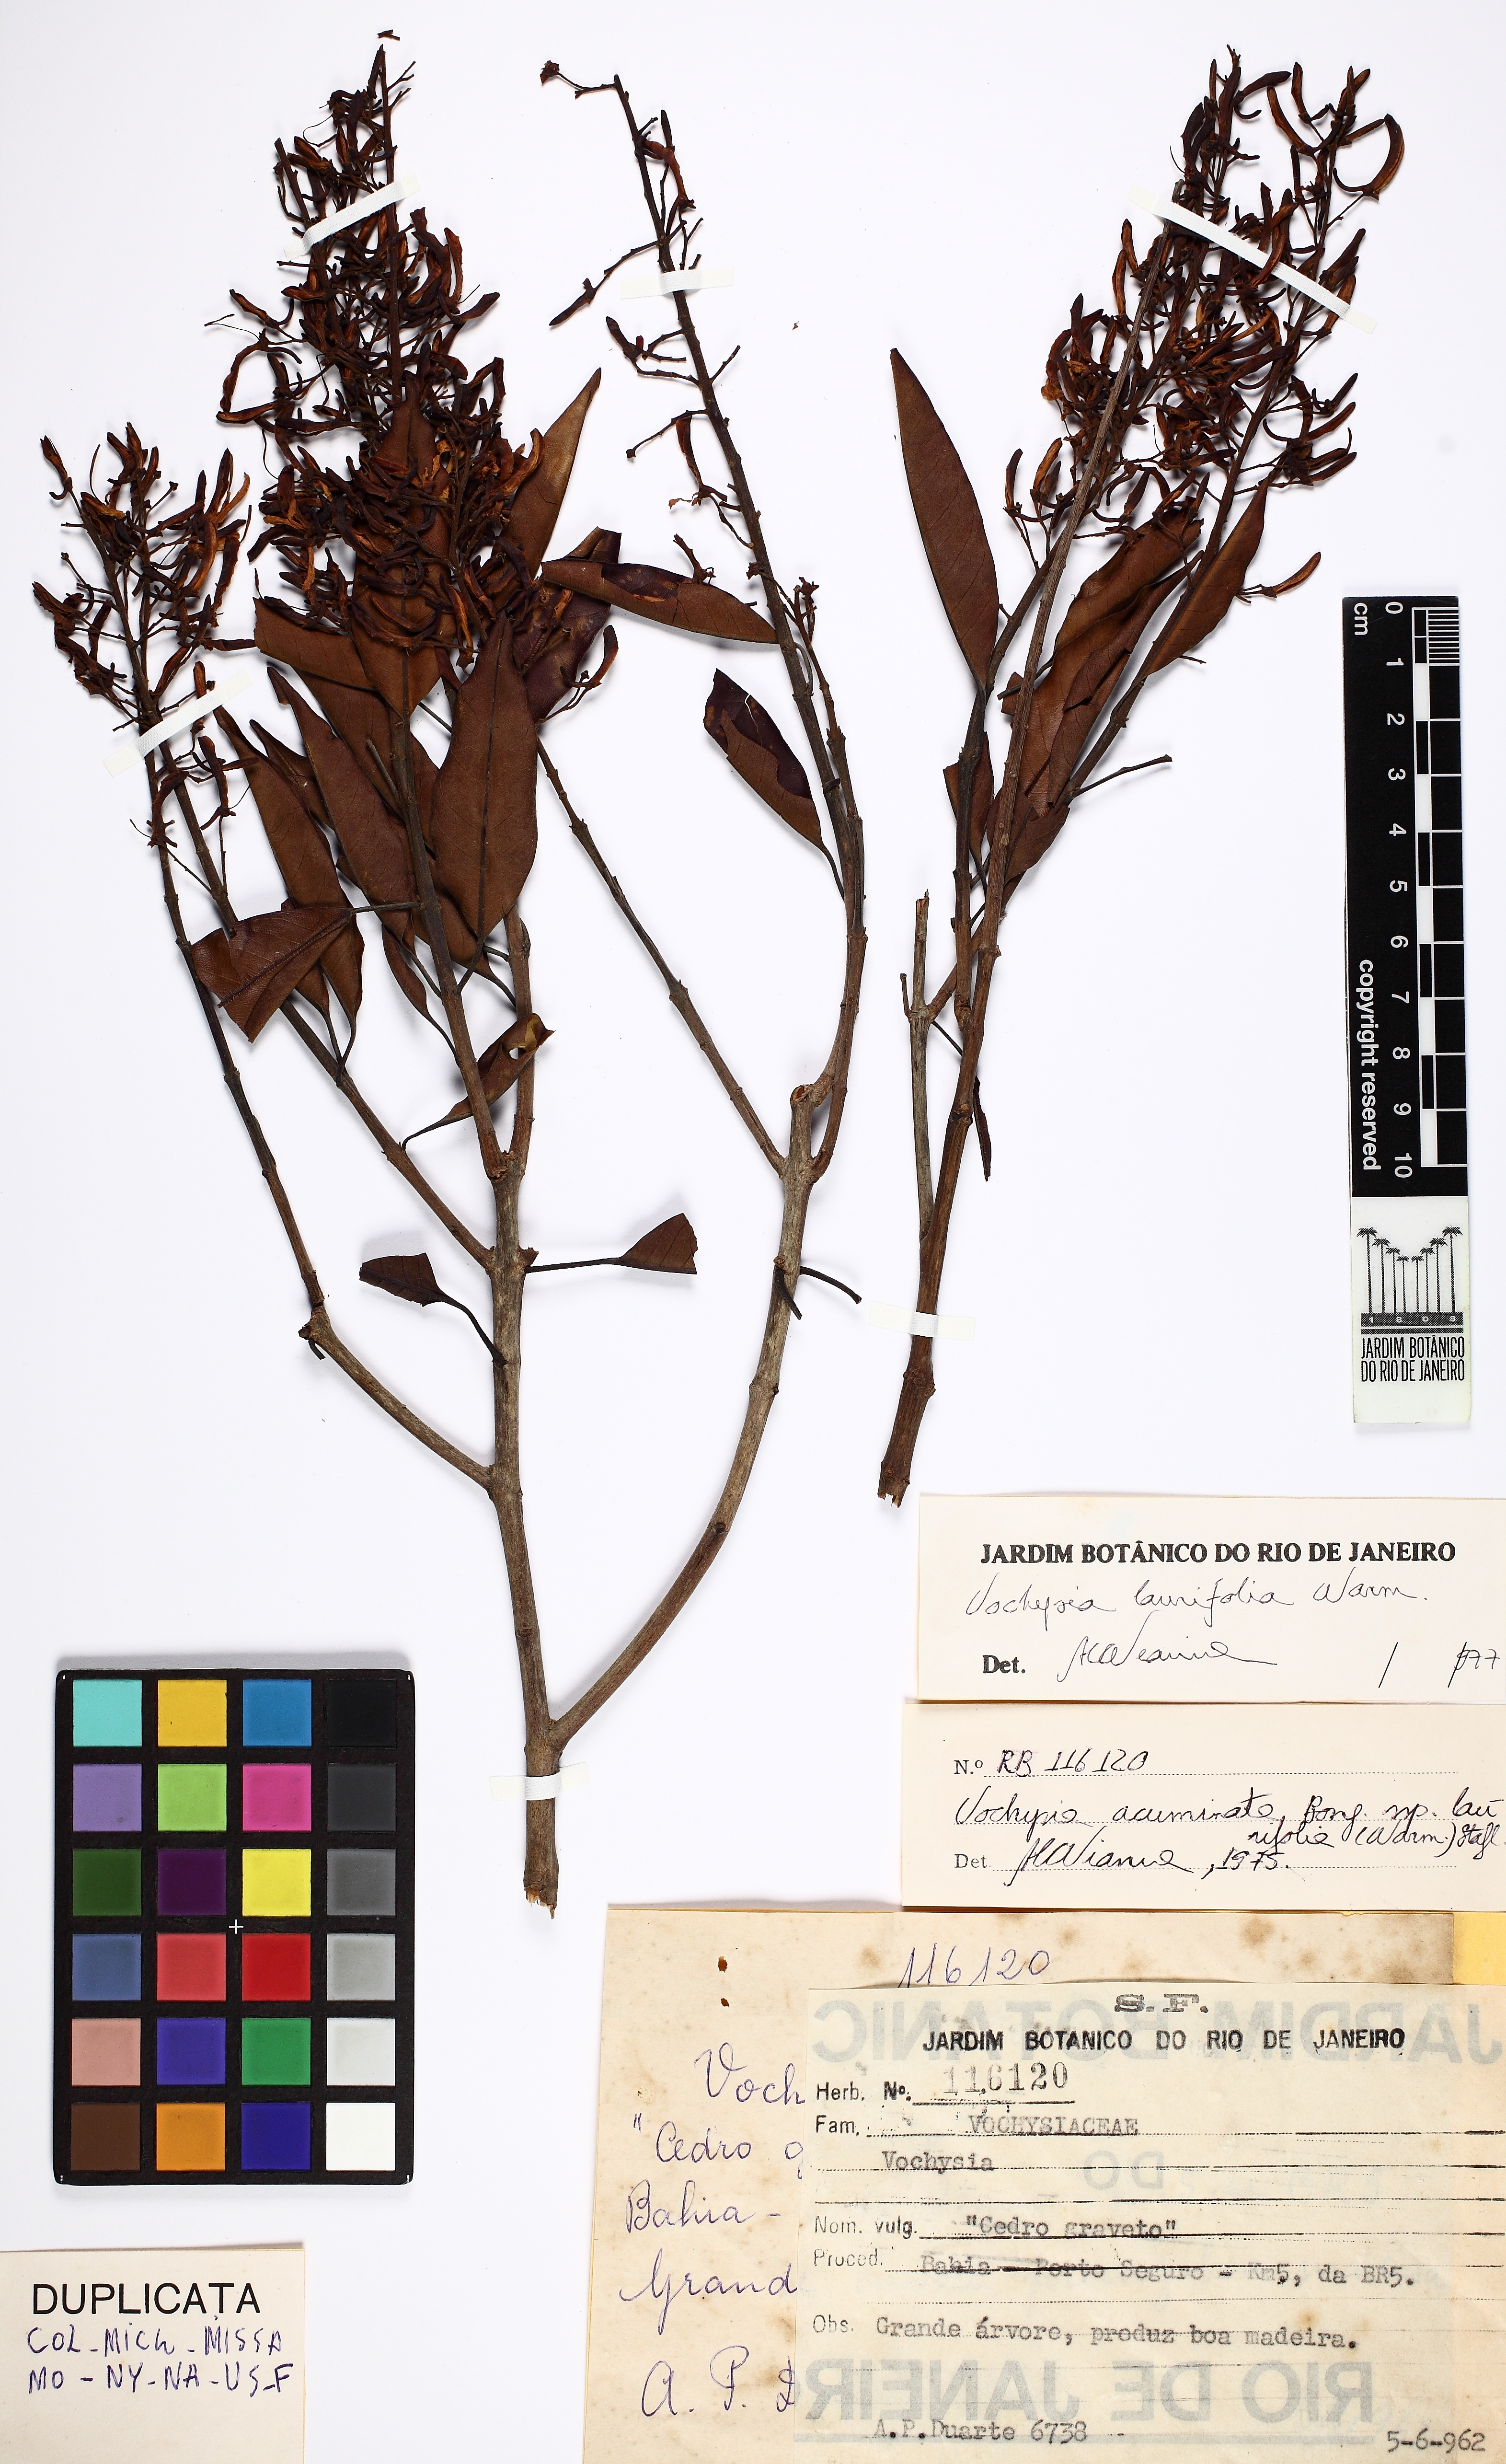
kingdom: Plantae
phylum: Tracheophyta
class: Magnoliopsida
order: Myrtales
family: Vochysiaceae
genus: Vochysia
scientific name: Vochysia laurifolia
